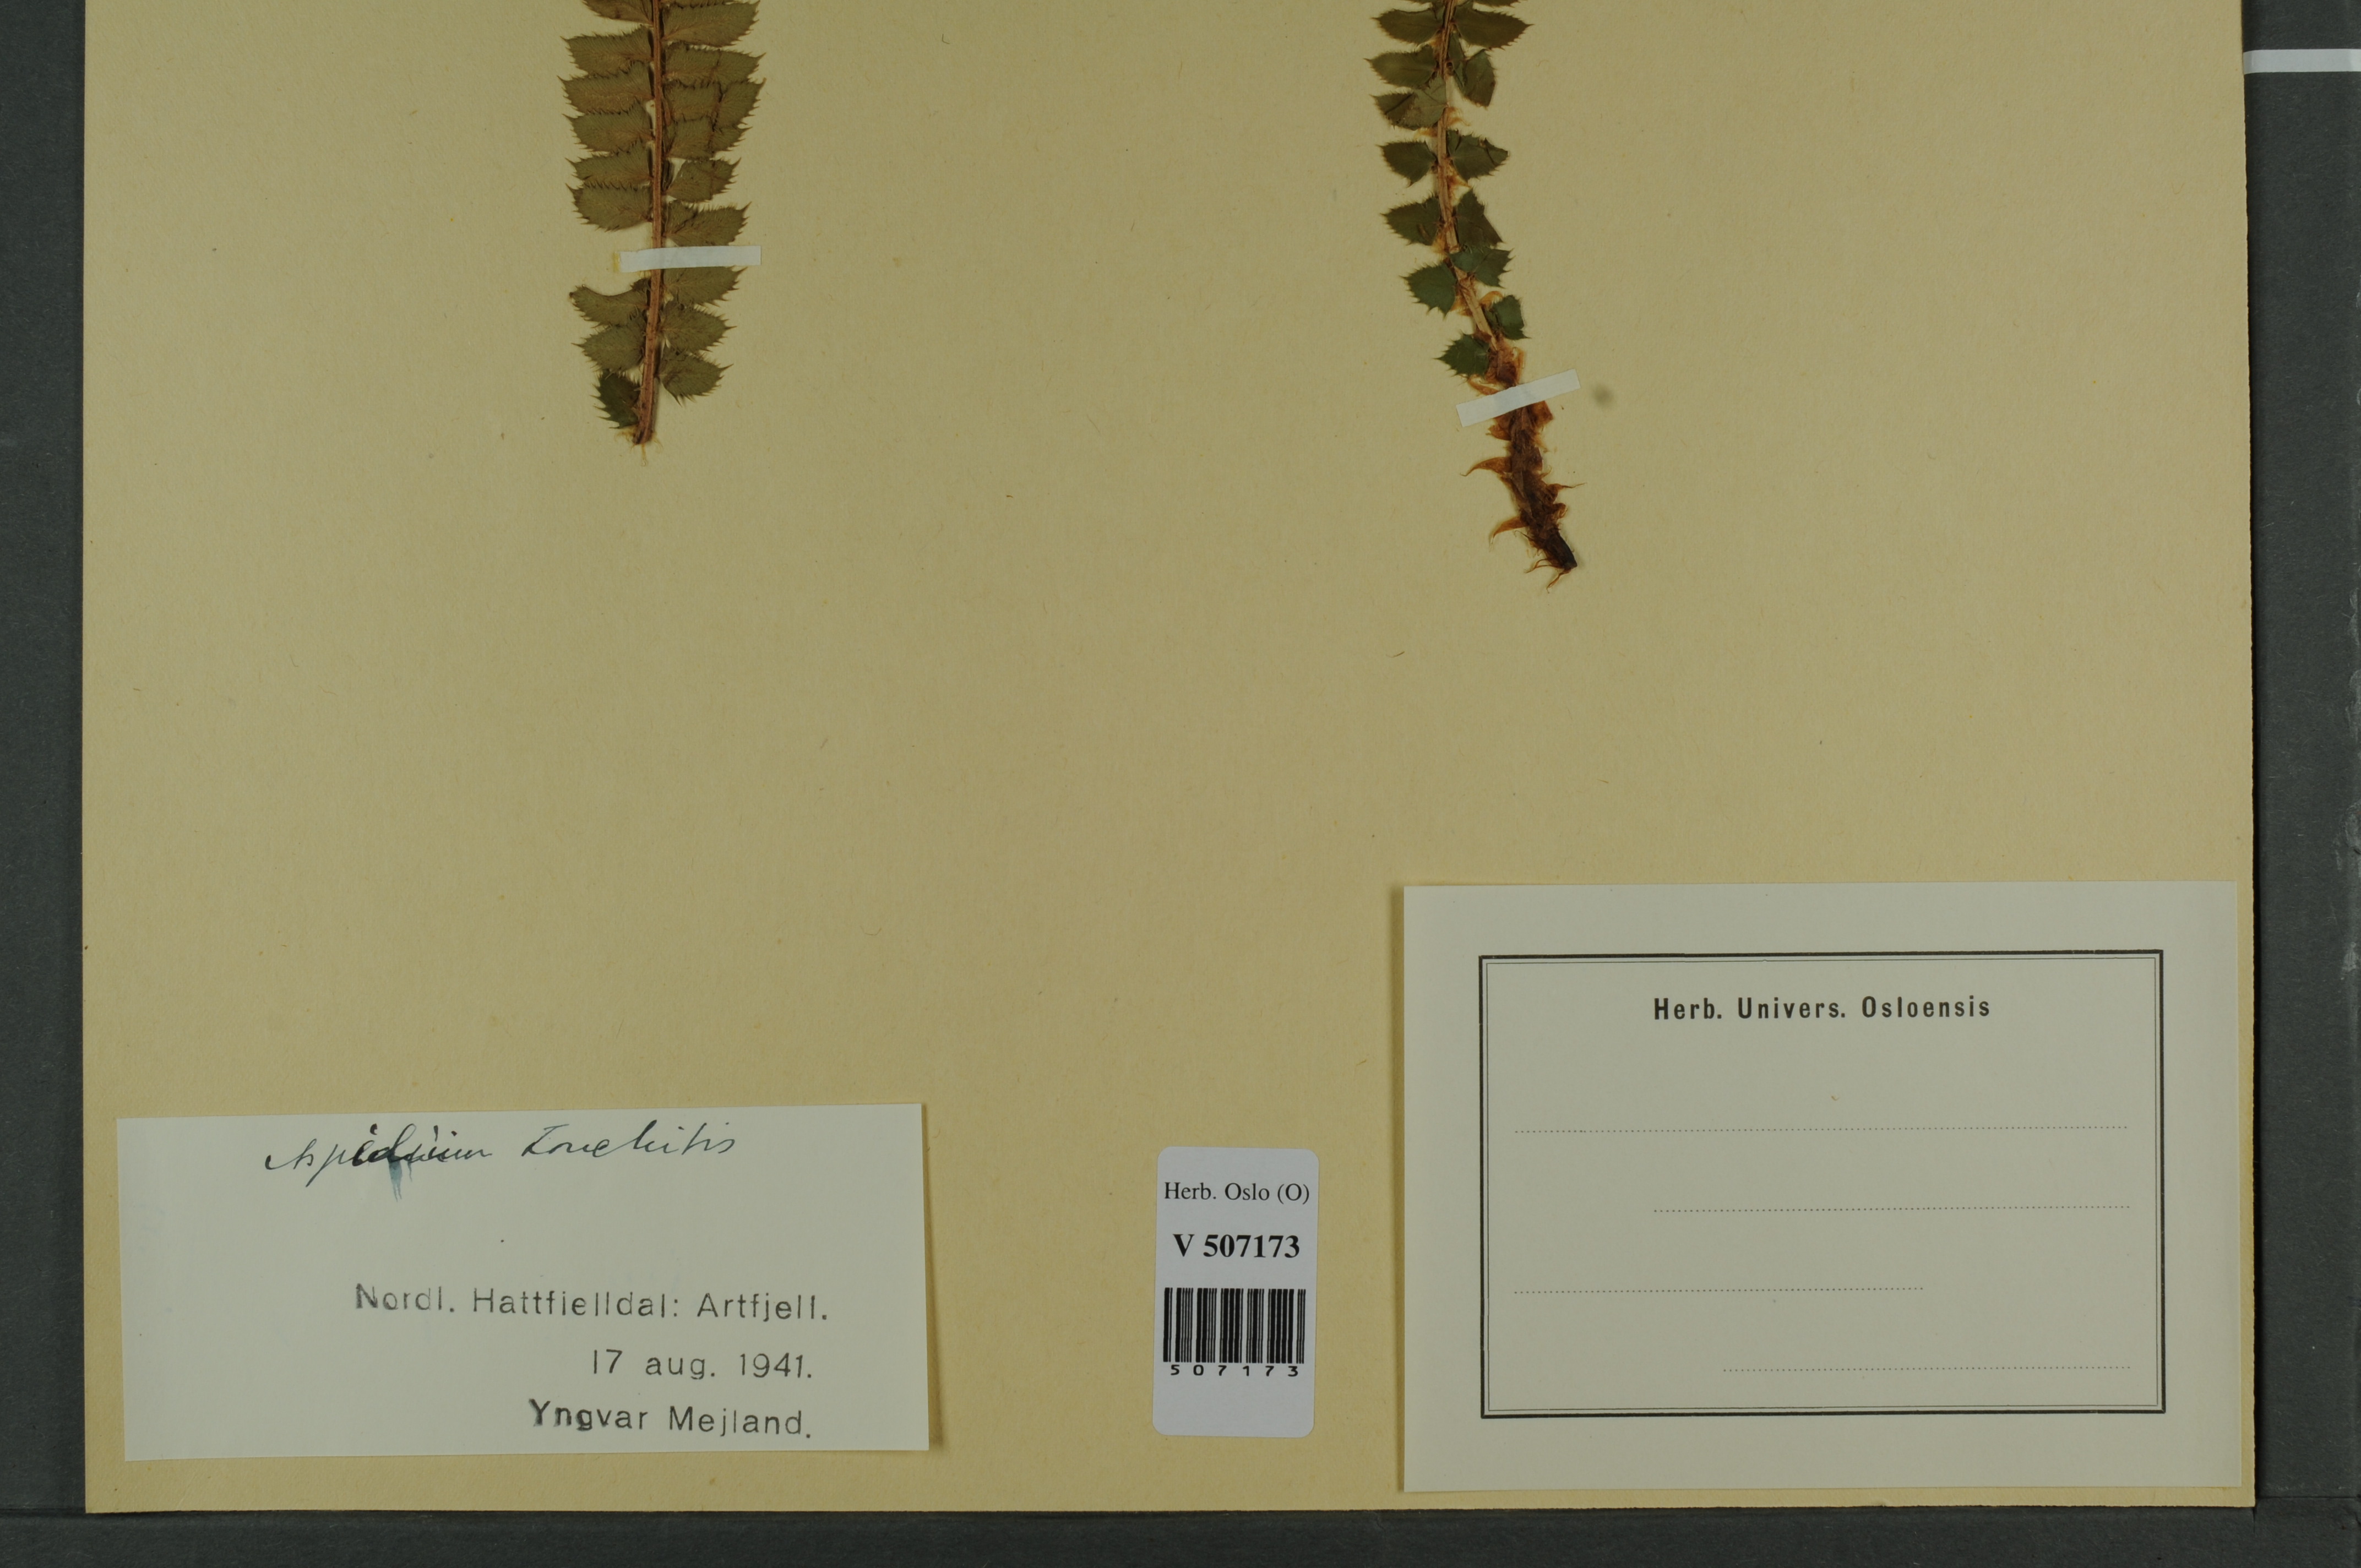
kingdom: Plantae
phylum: Tracheophyta
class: Polypodiopsida
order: Polypodiales
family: Dryopteridaceae
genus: Polystichum
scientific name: Polystichum lonchitis
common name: Holly fern
